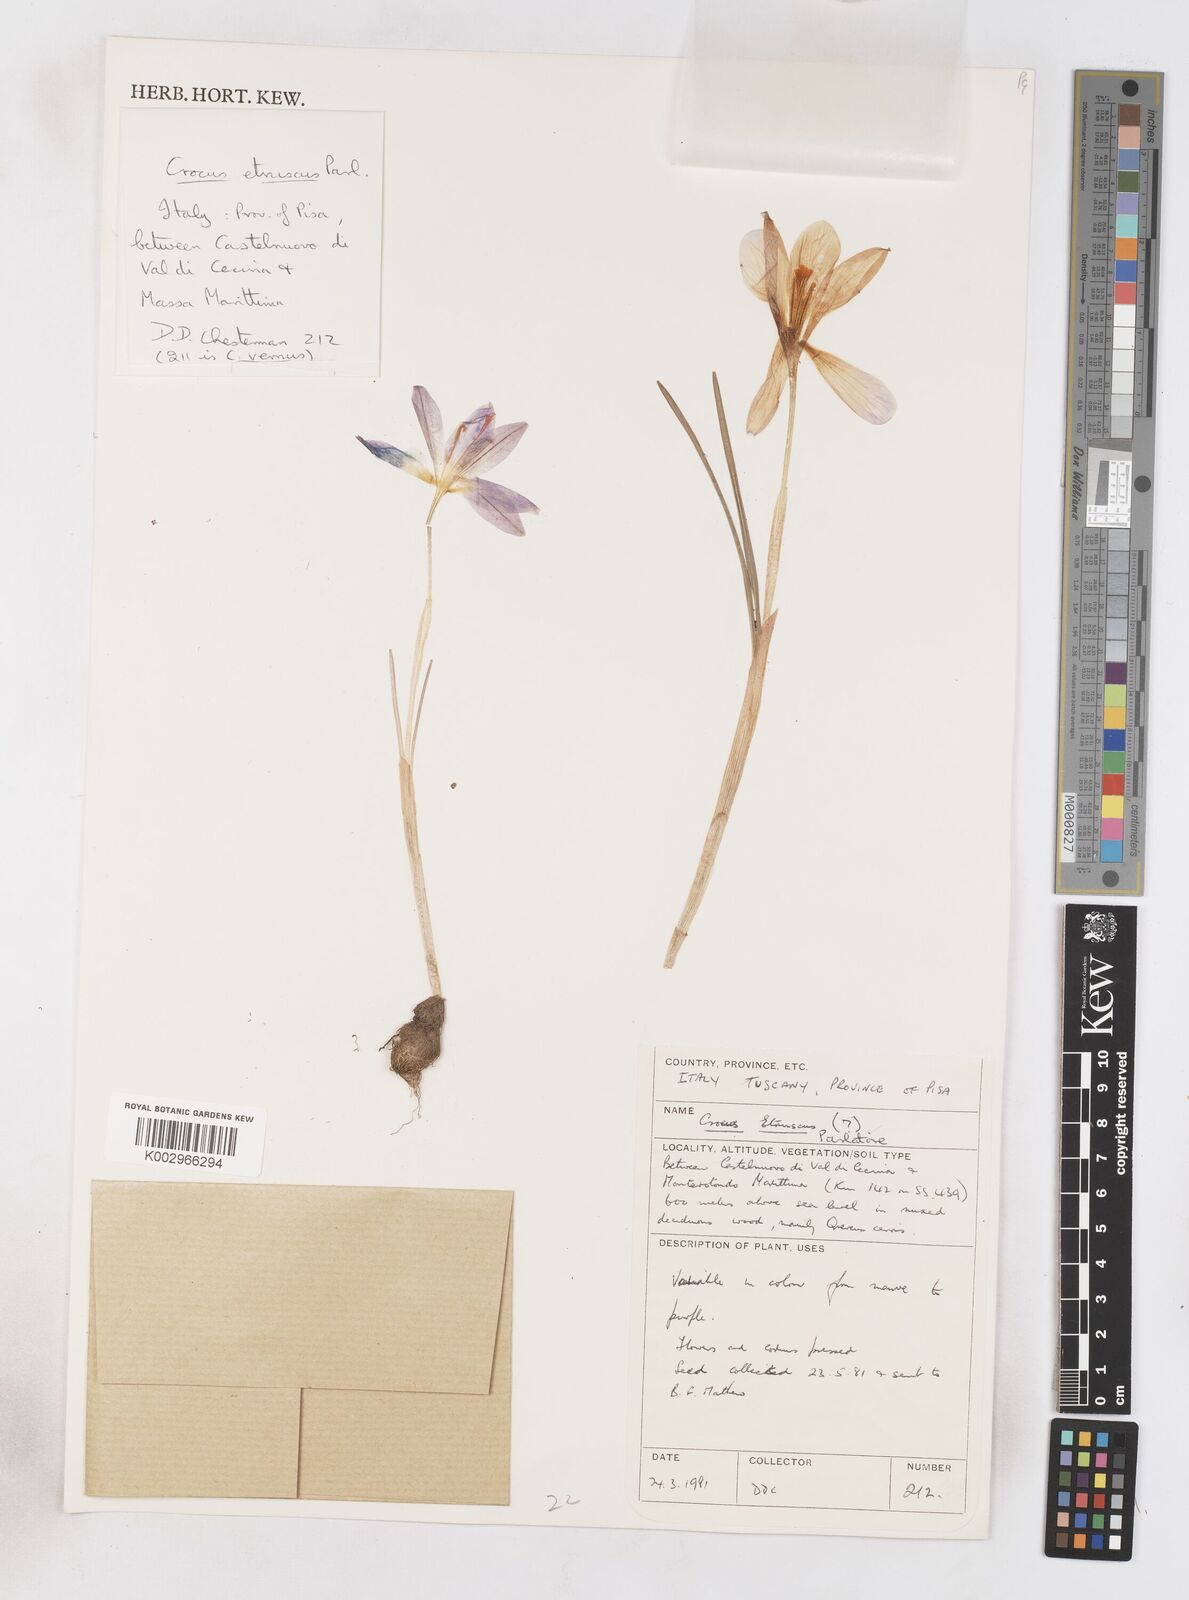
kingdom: Plantae
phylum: Tracheophyta
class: Liliopsida
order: Asparagales
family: Iridaceae
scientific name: Iridaceae
